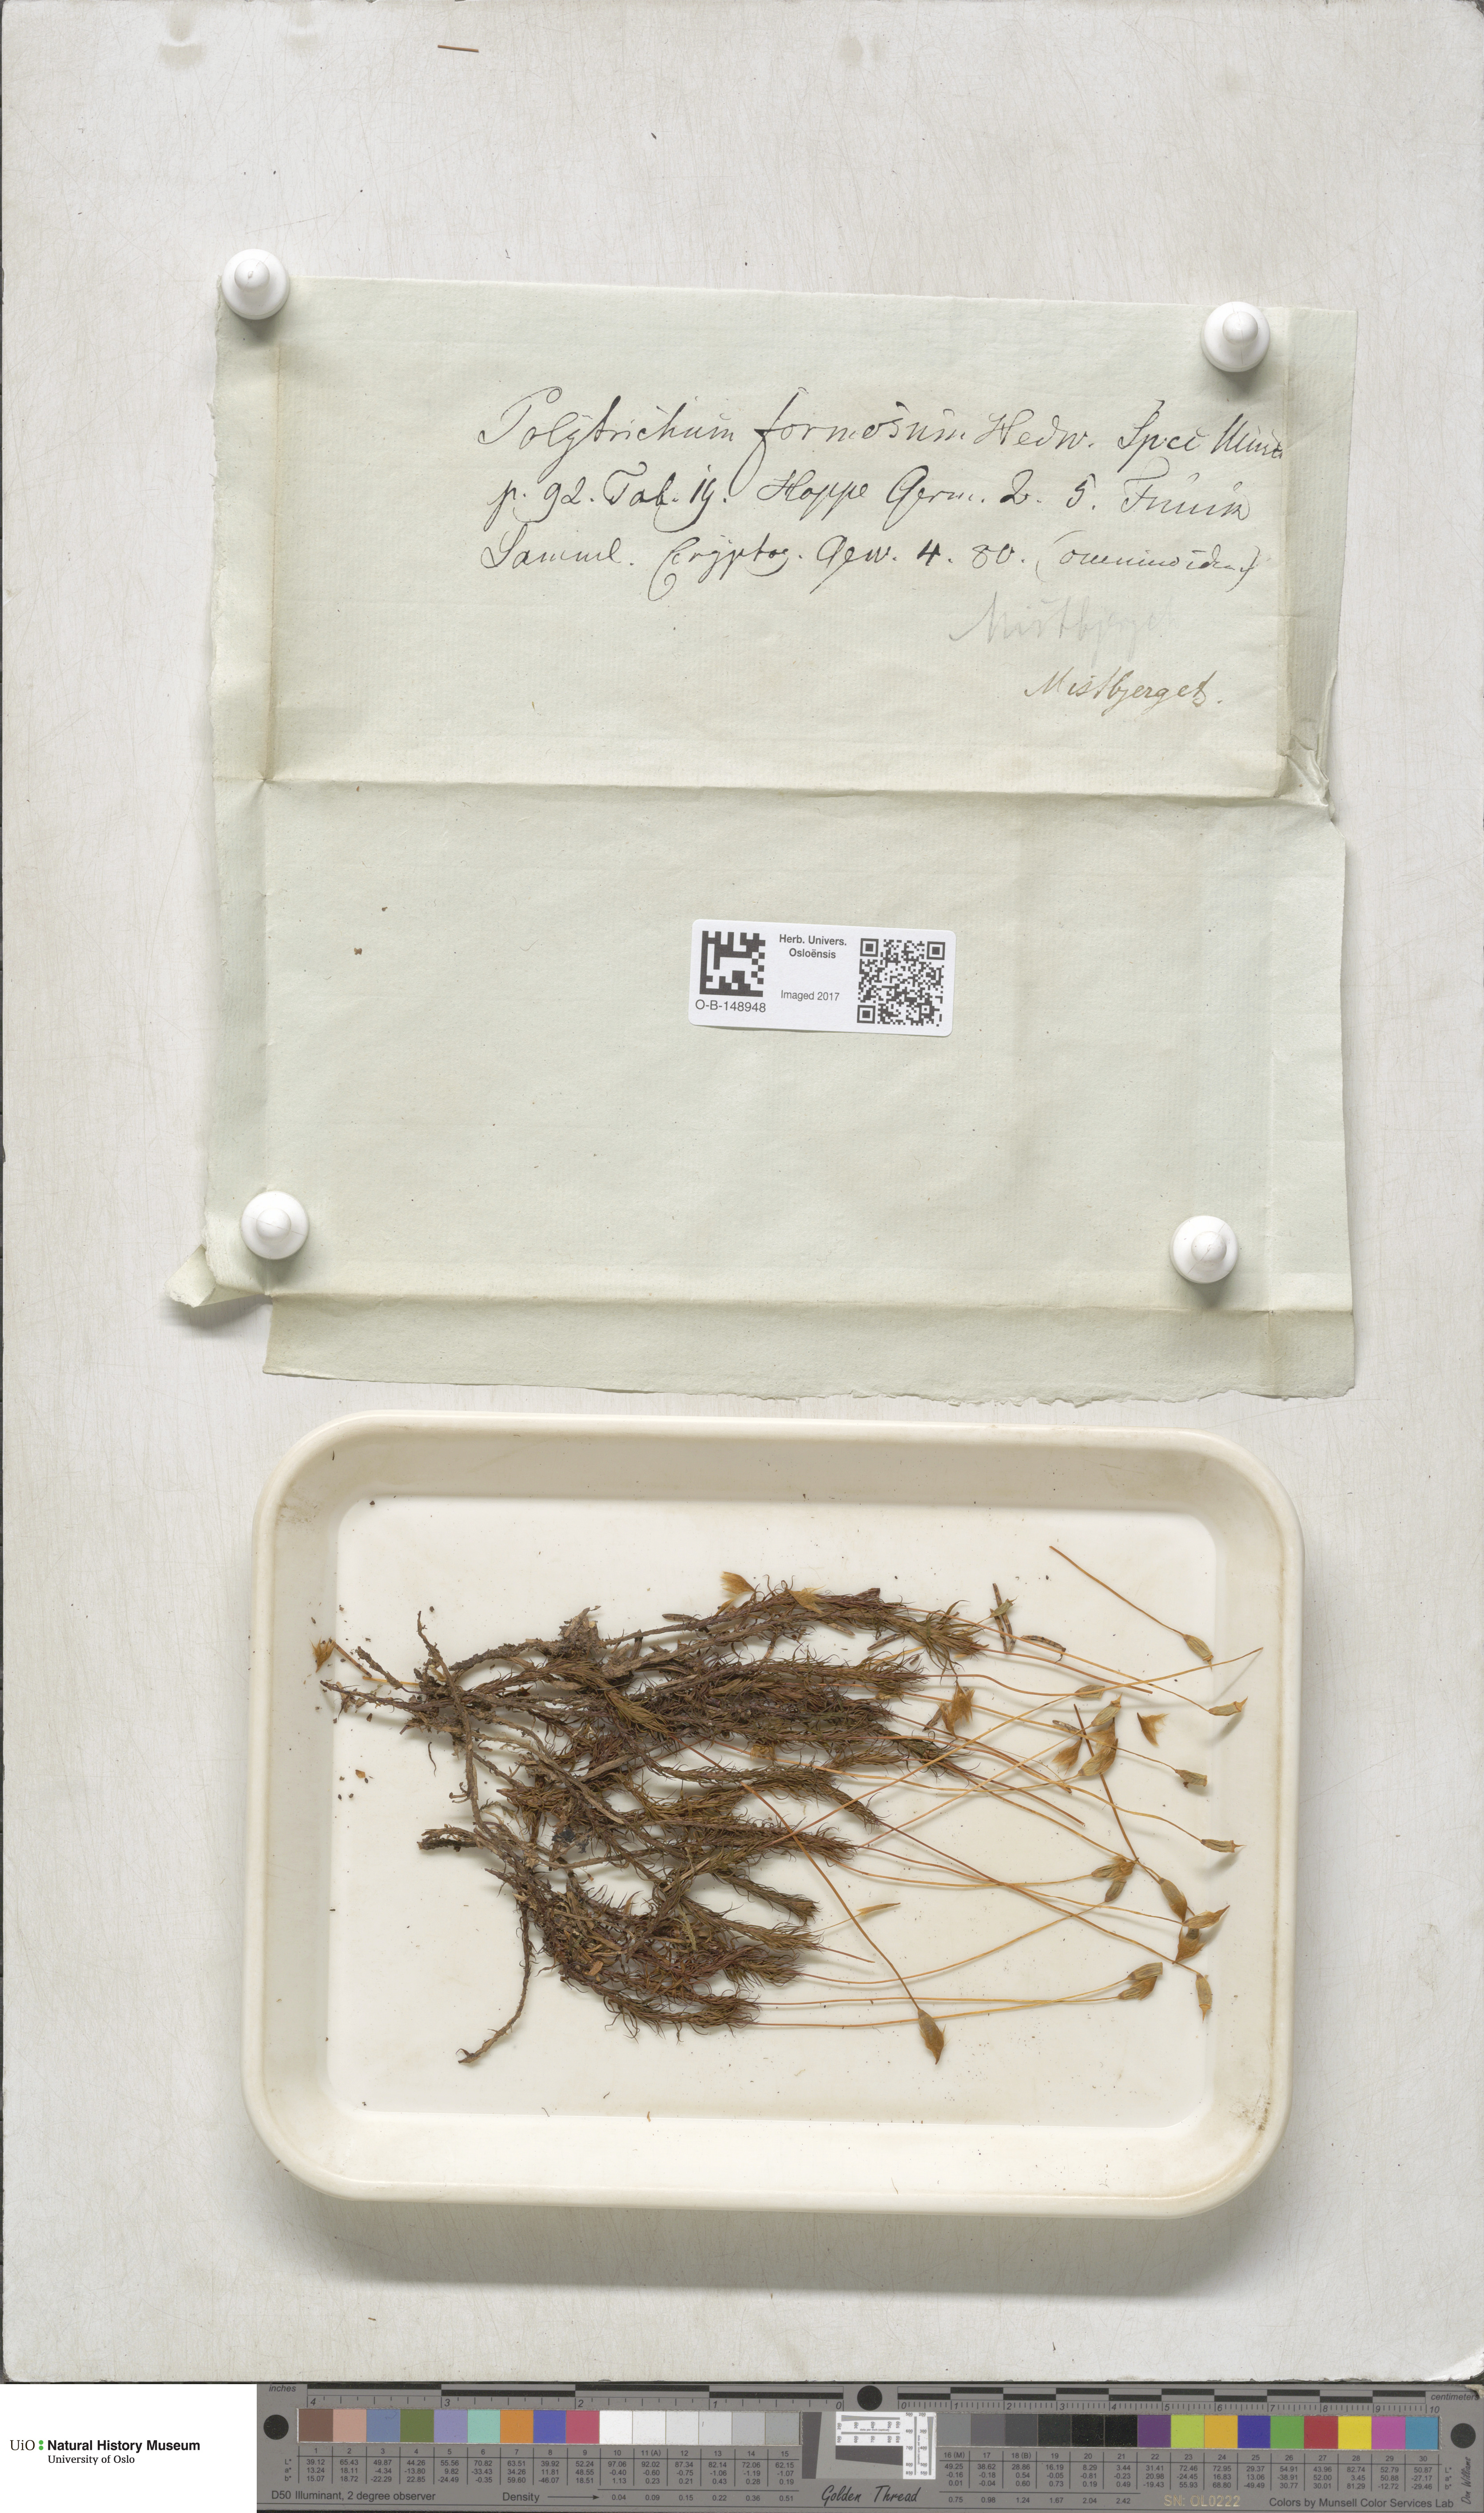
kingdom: Plantae
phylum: Bryophyta
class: Polytrichopsida
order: Polytrichales
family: Polytrichaceae
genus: Polytrichum
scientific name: Polytrichum formosum
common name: Bank haircap moss
